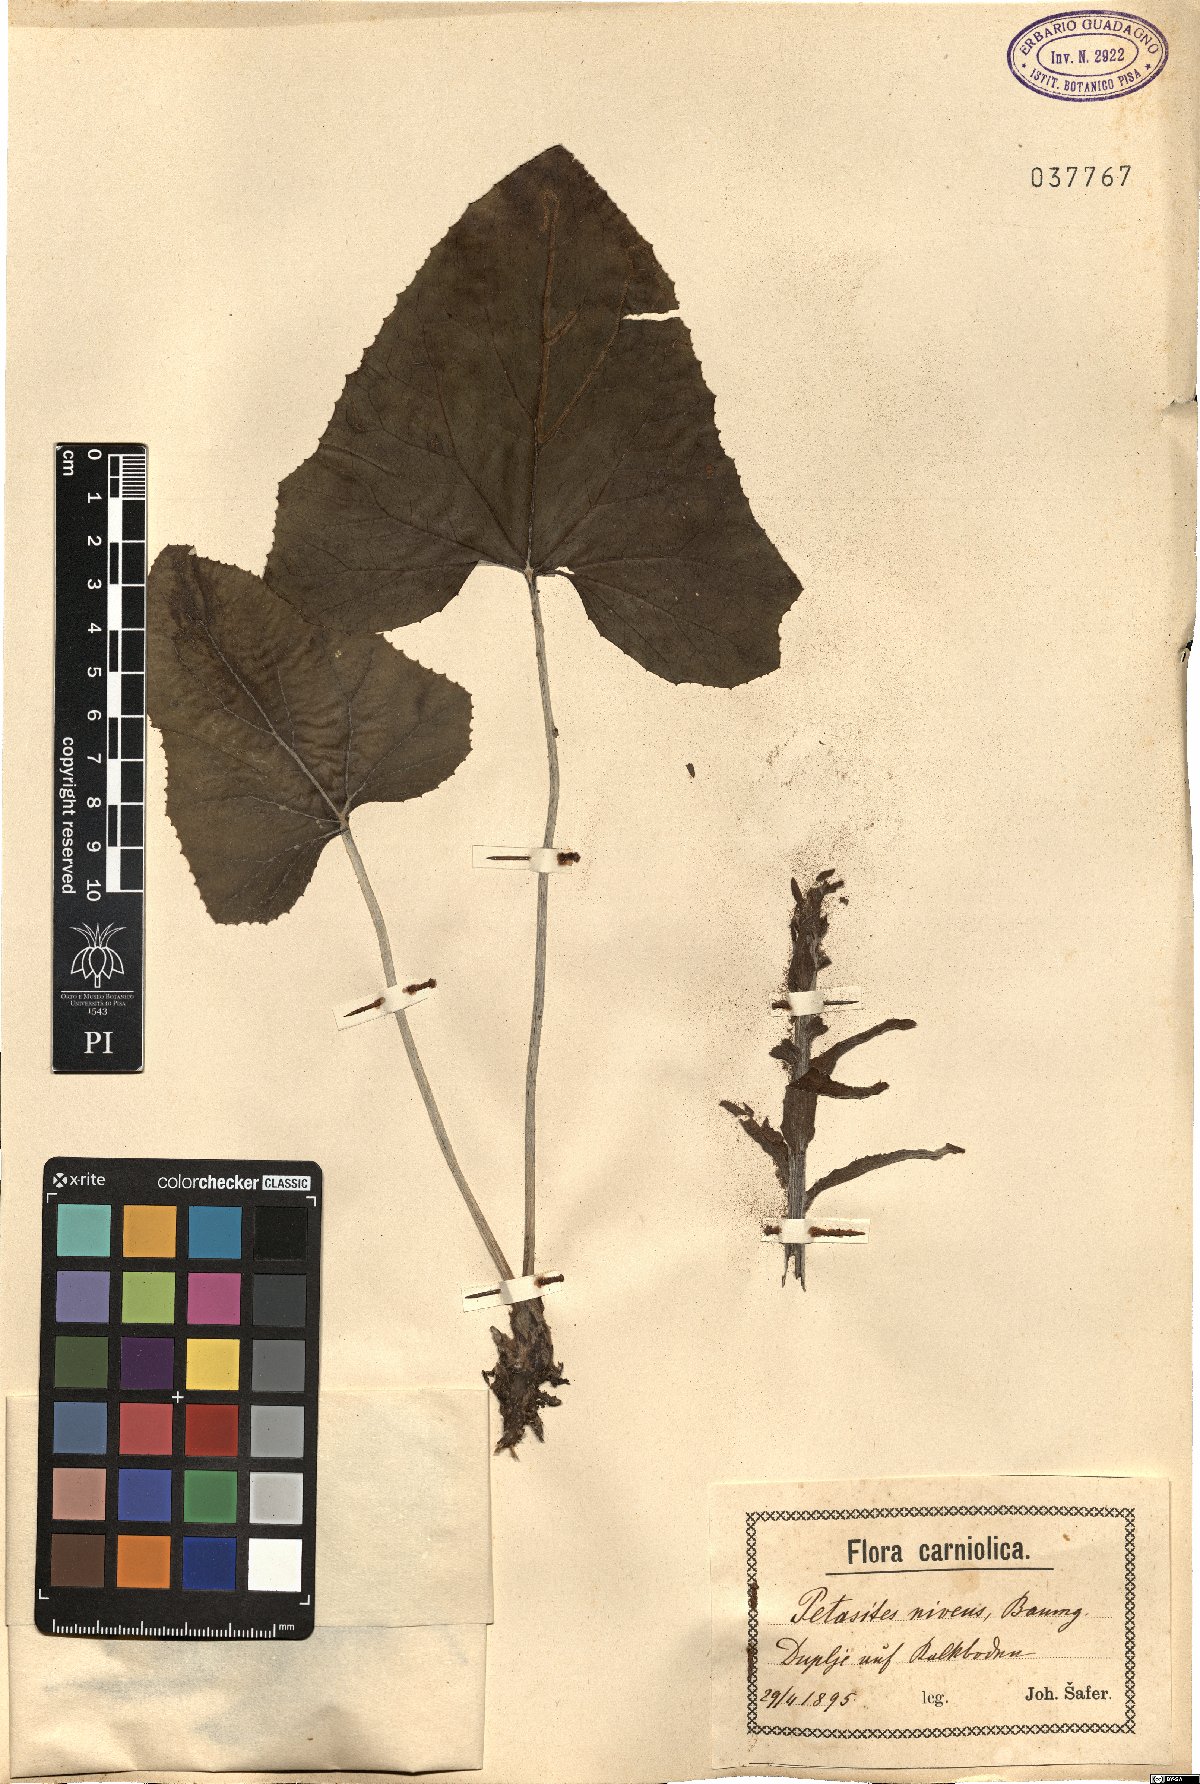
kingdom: Plantae
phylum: Tracheophyta
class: Magnoliopsida
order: Asterales
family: Asteraceae
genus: Petasites
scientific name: Petasites paradoxus
